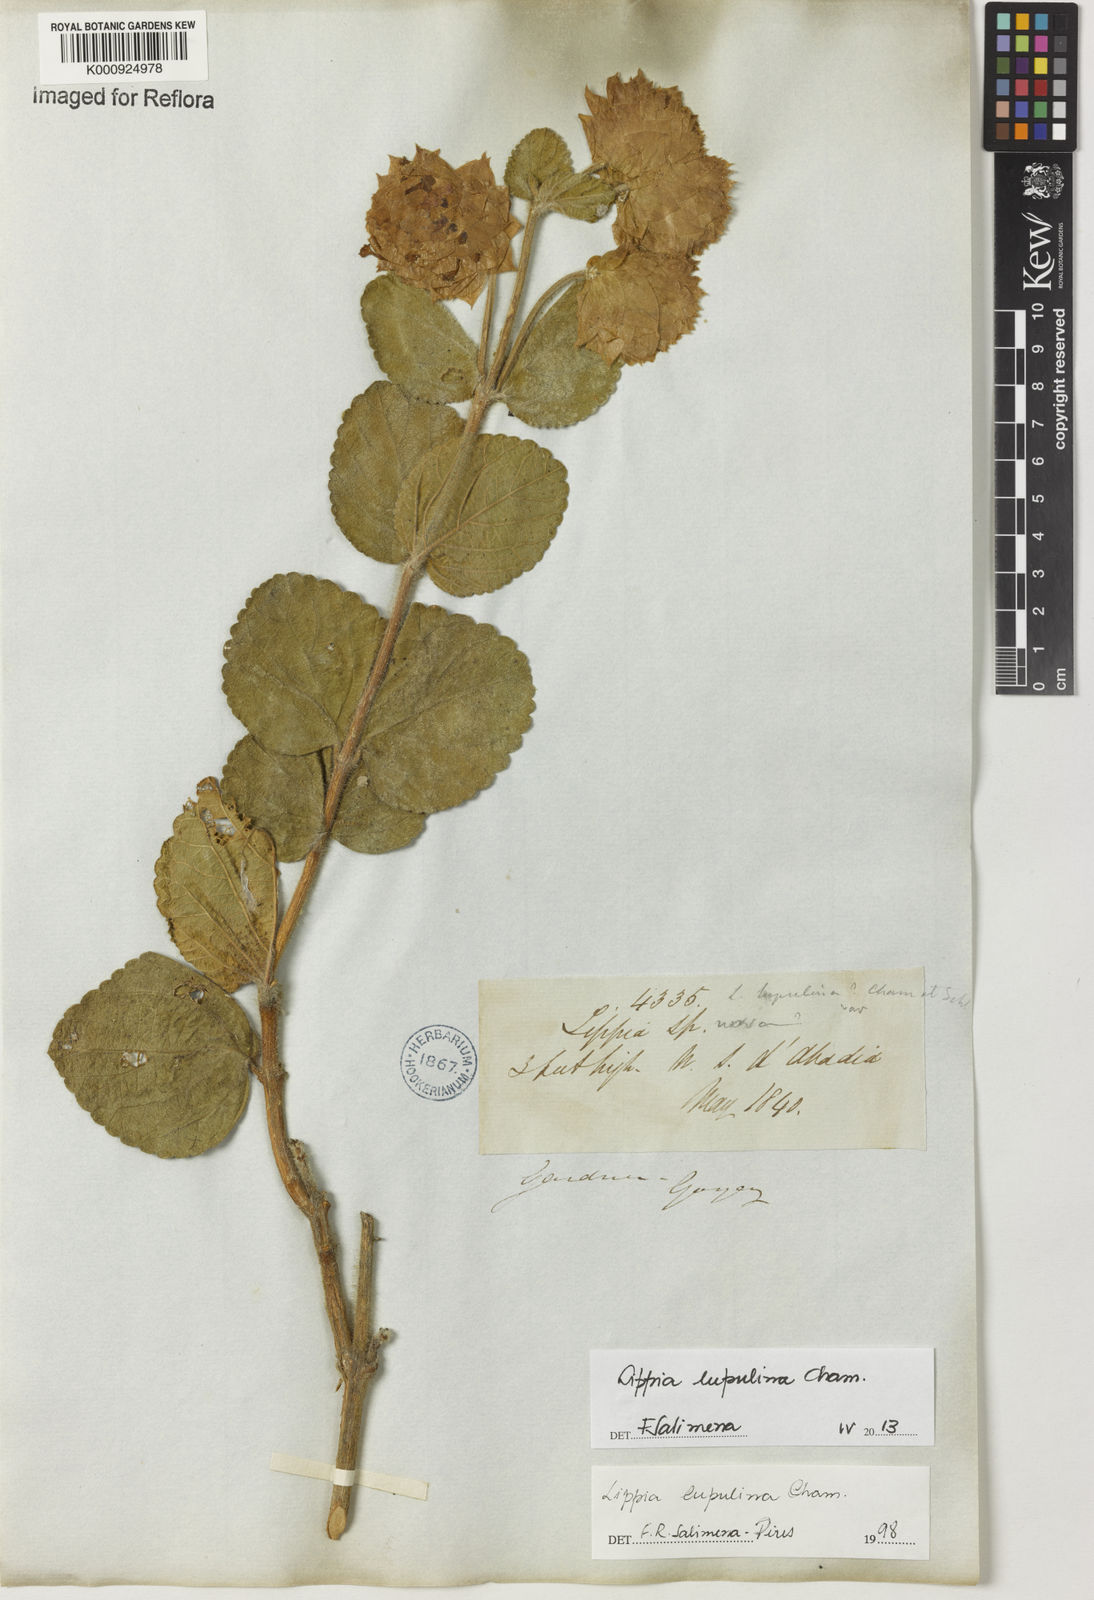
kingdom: Plantae
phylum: Tracheophyta
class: Magnoliopsida
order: Lamiales
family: Verbenaceae
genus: Lippia
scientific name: Lippia lupulina
